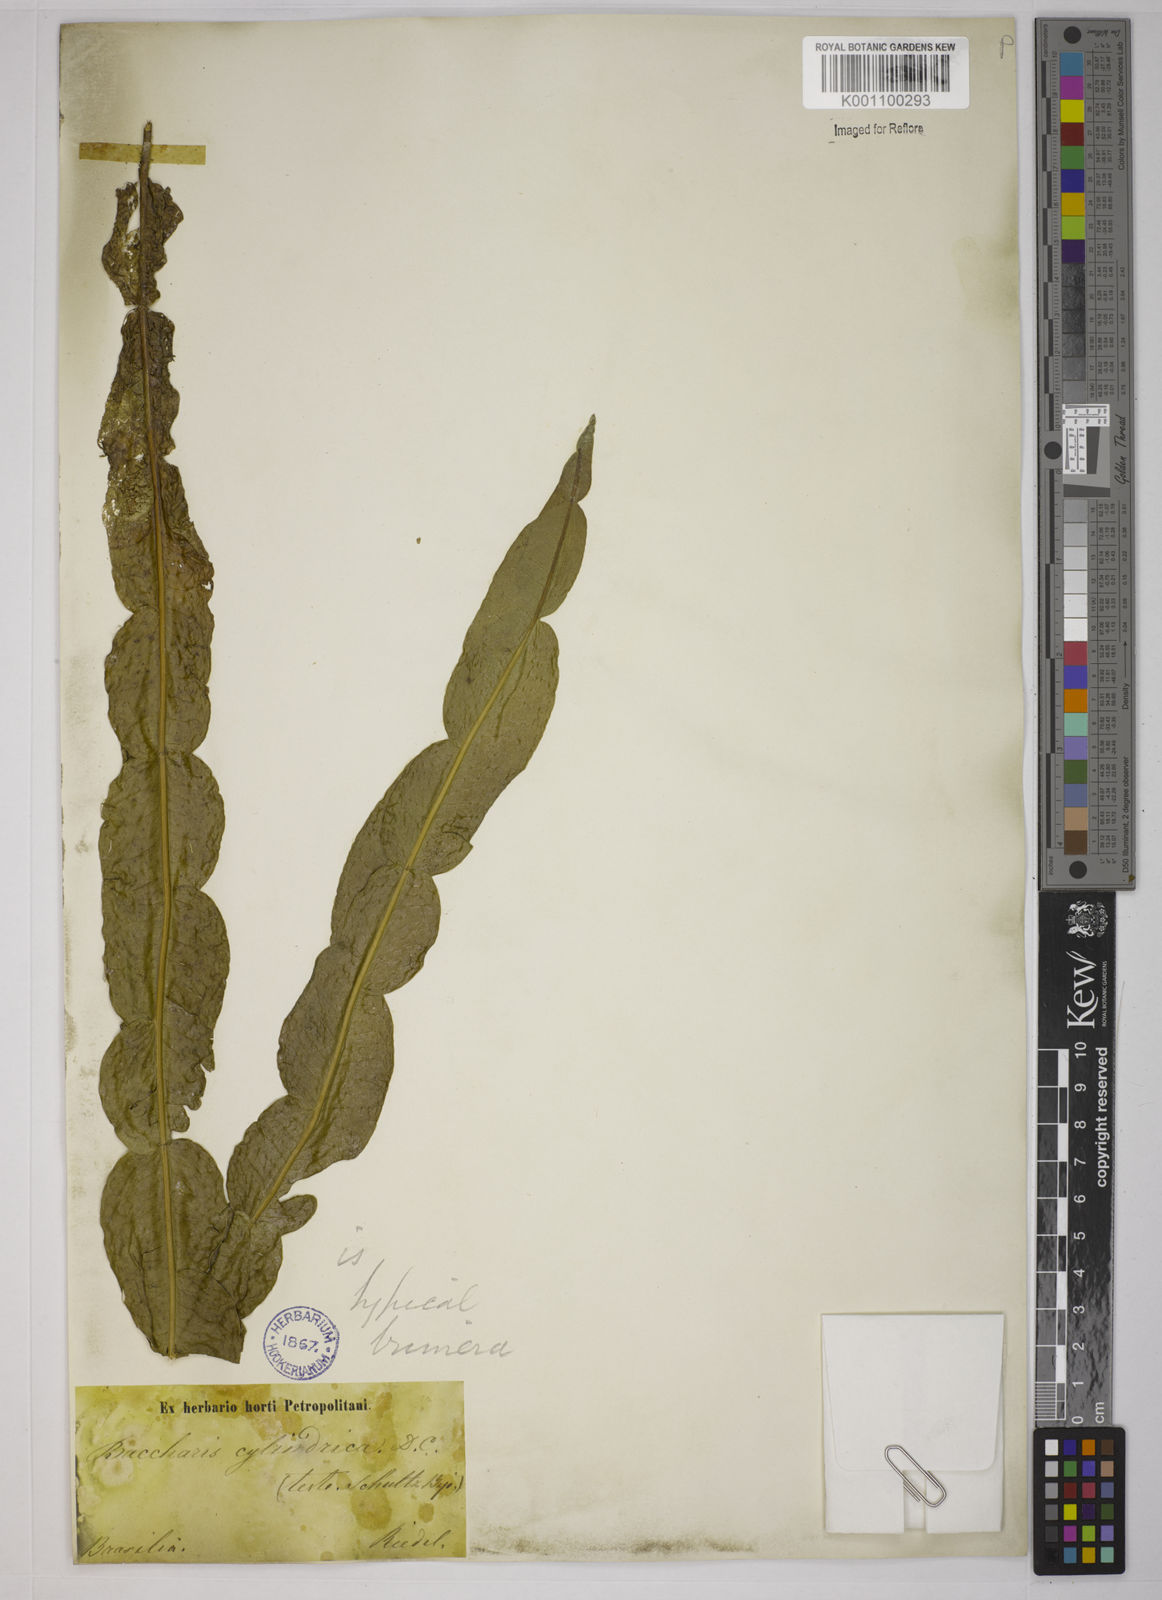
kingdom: Plantae
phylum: Tracheophyta
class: Magnoliopsida
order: Asterales
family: Asteraceae
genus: Baccharis
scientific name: Baccharis trimera
